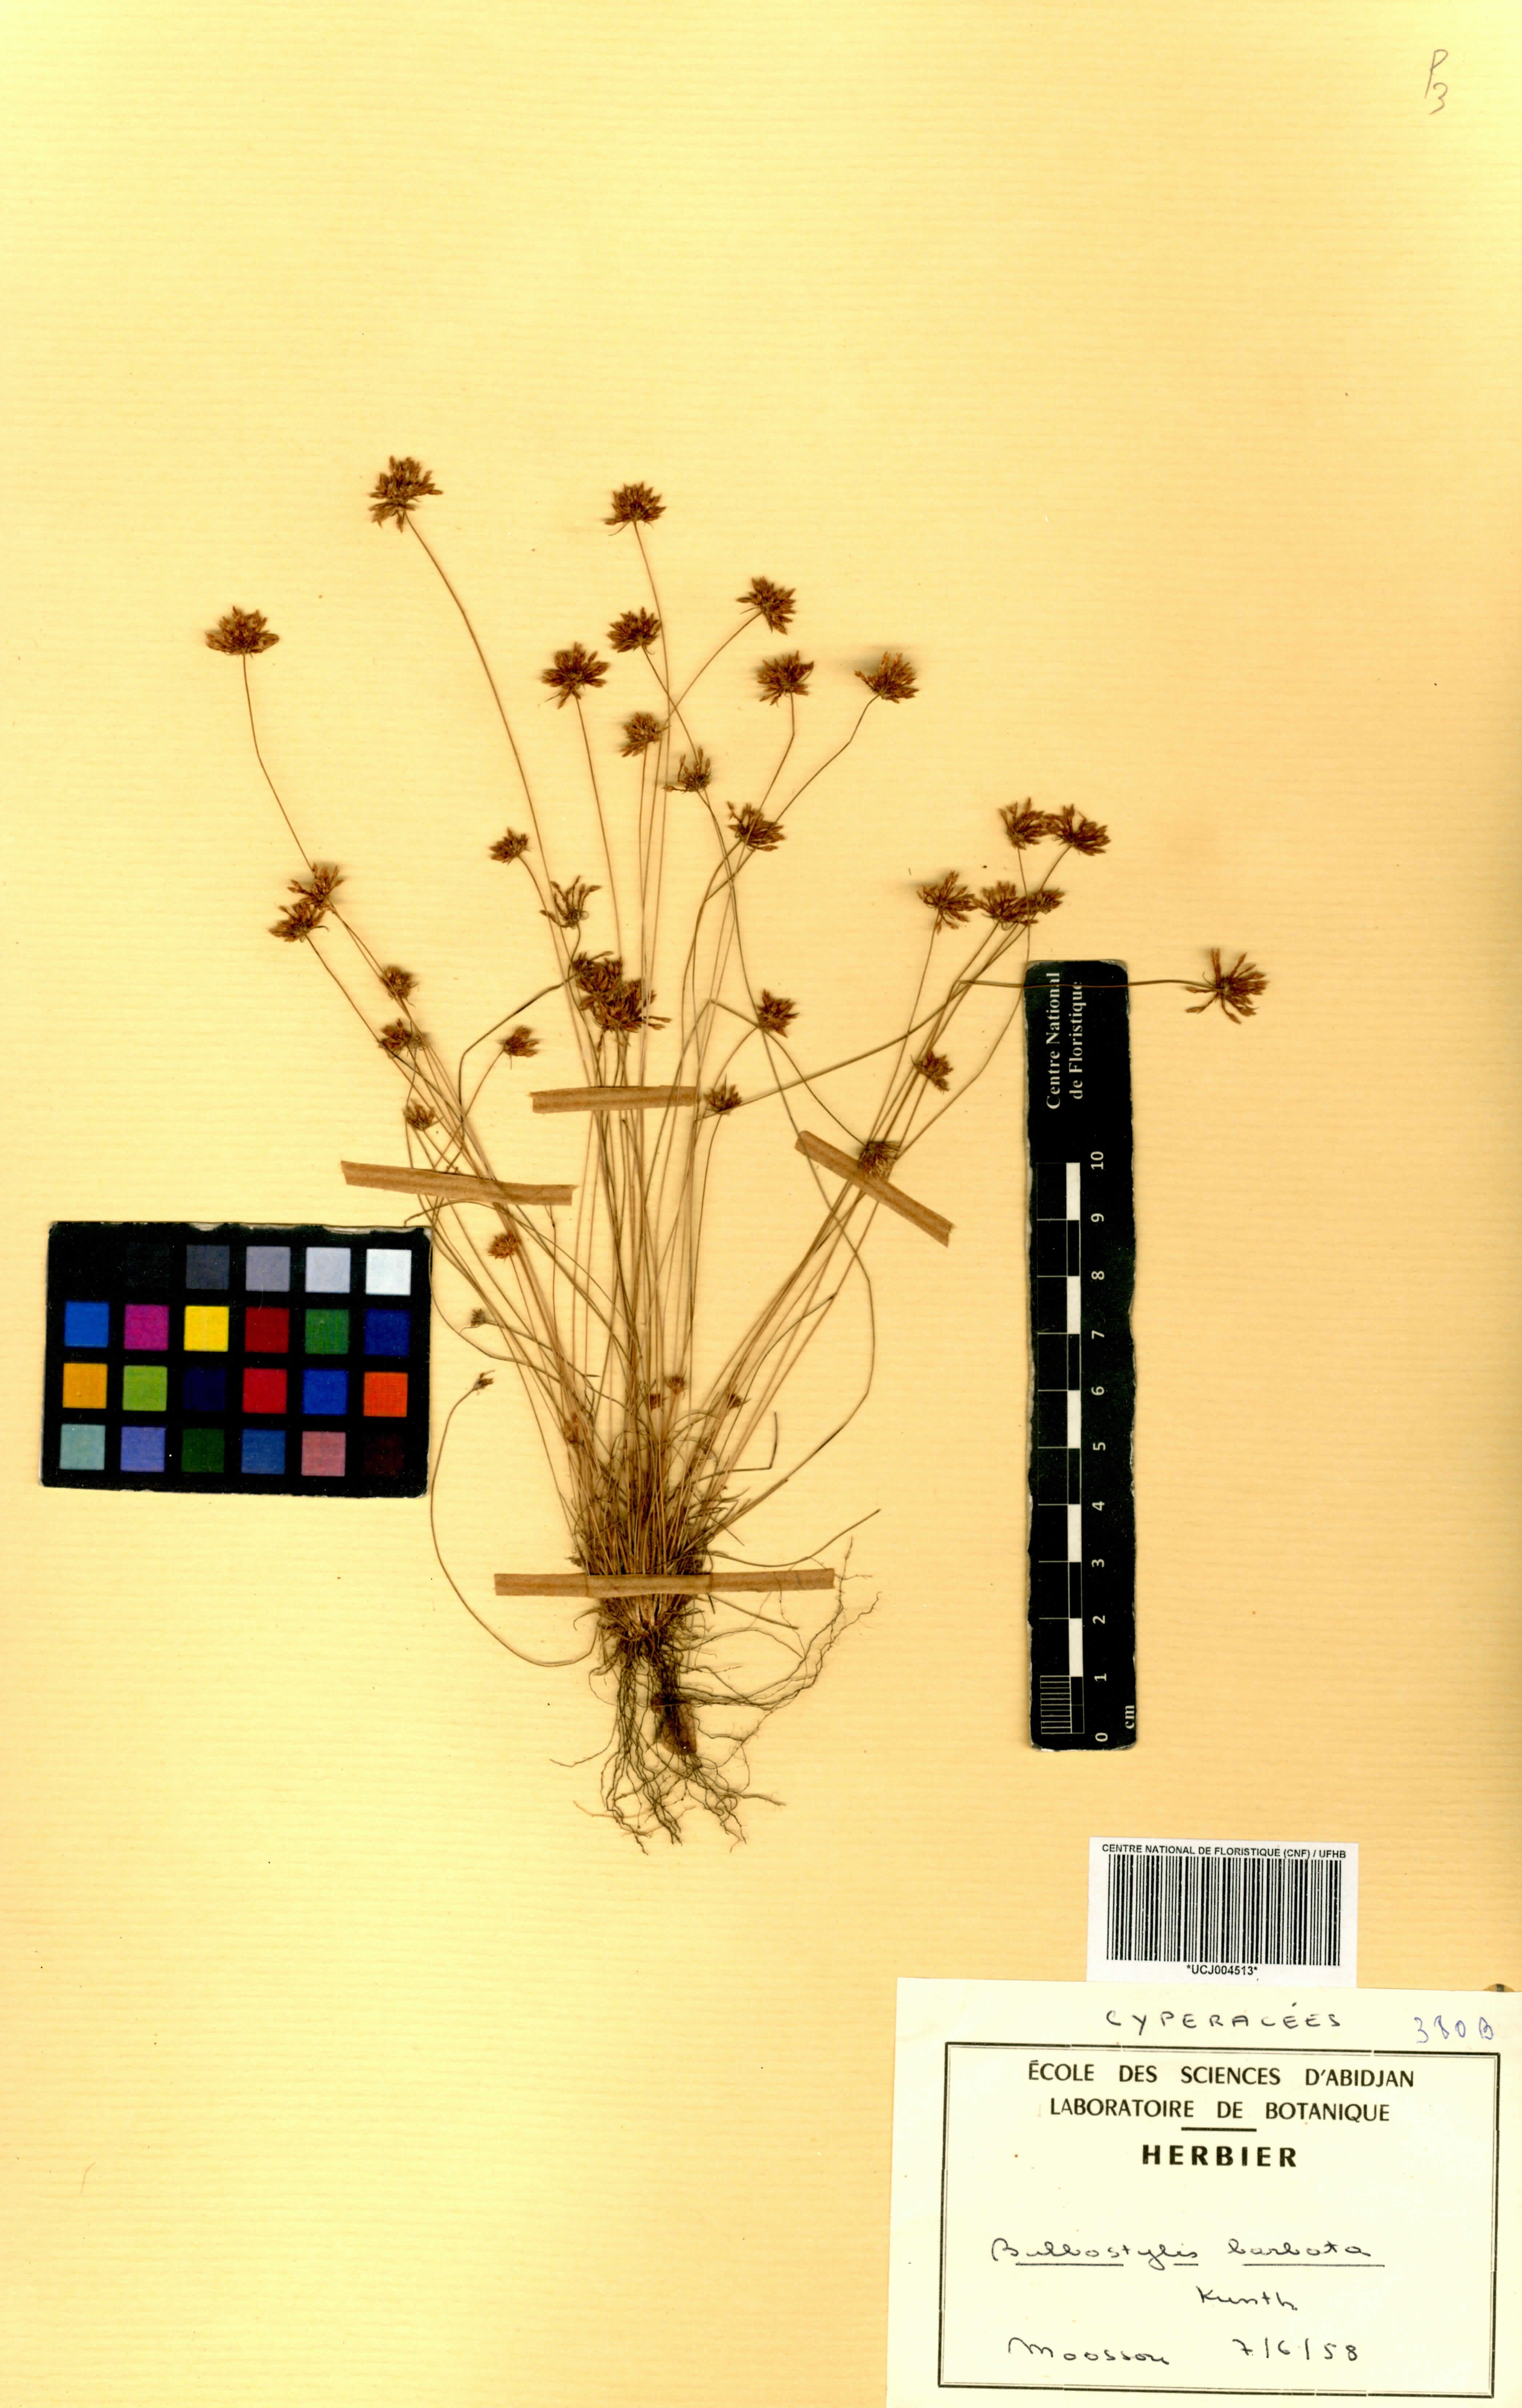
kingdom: Plantae
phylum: Tracheophyta
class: Liliopsida
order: Poales
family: Cyperaceae
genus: Bulbostylis
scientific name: Bulbostylis barbata
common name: Watergrass
